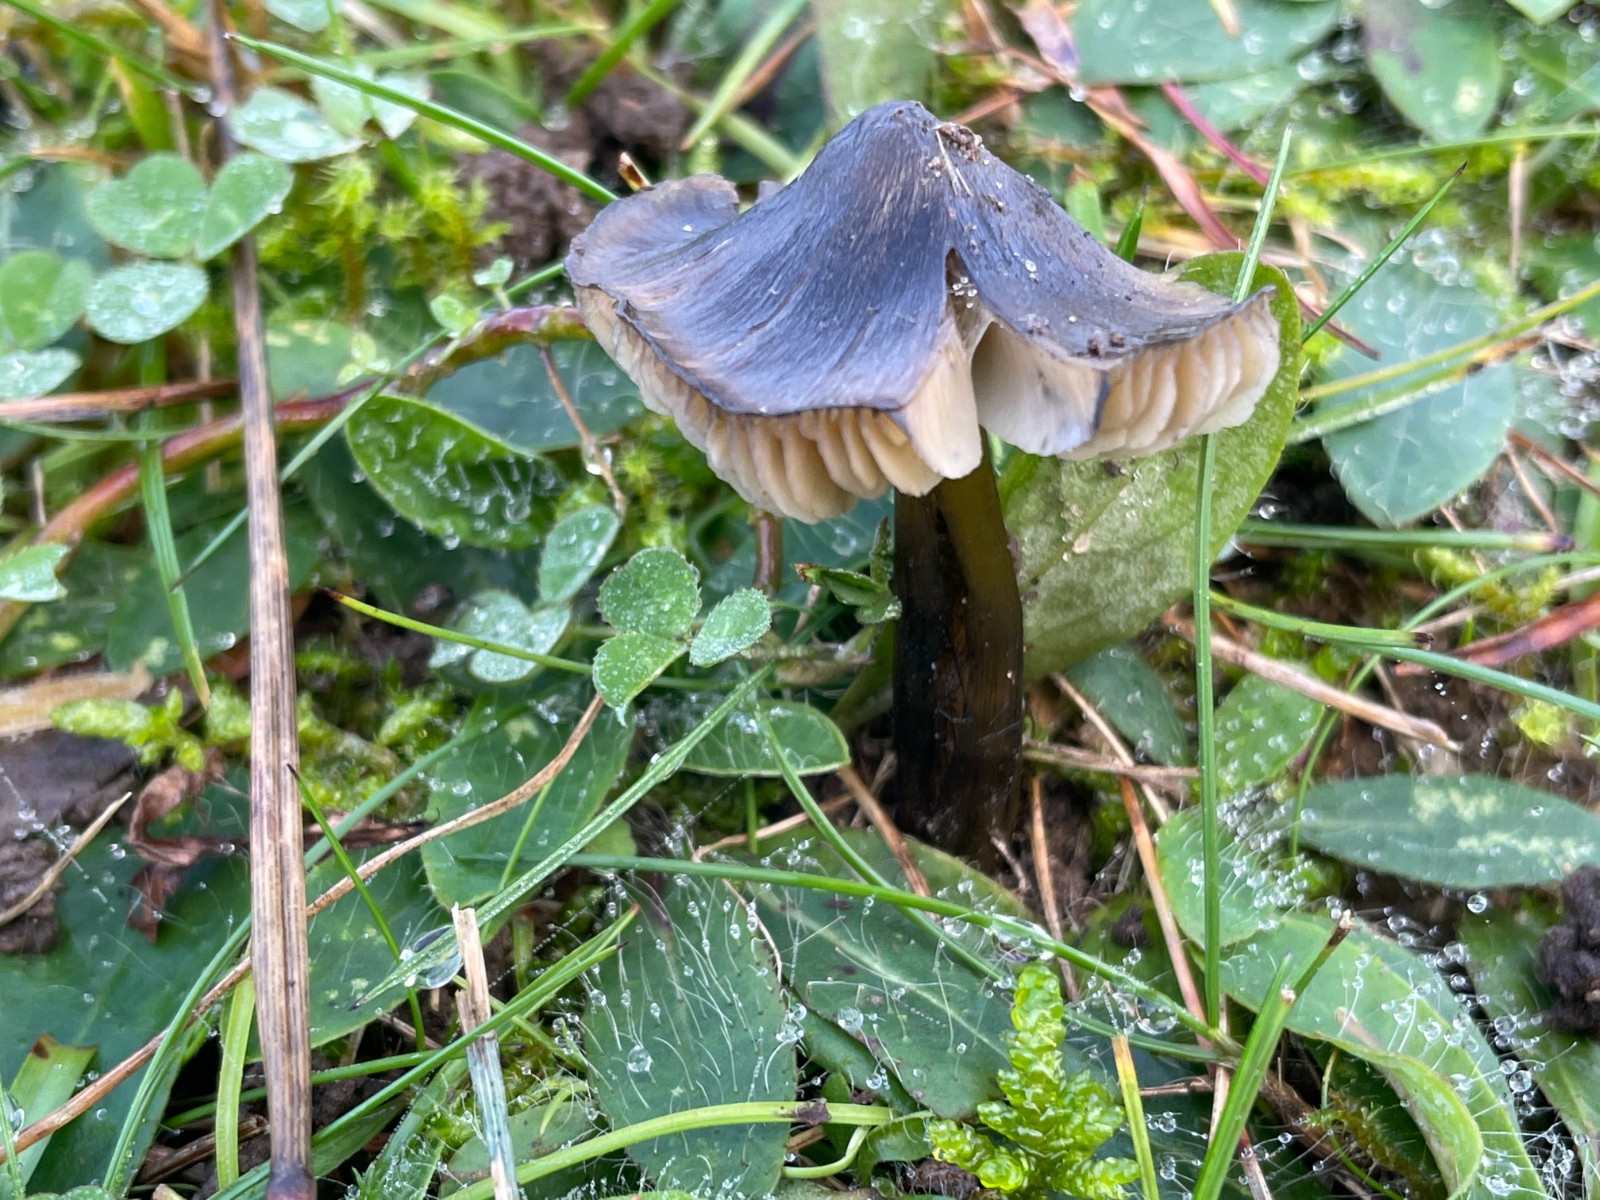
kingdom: Fungi
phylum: Basidiomycota
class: Agaricomycetes
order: Agaricales
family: Hygrophoraceae
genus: Hygrocybe
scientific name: Hygrocybe conica
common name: kegle-vokshat
